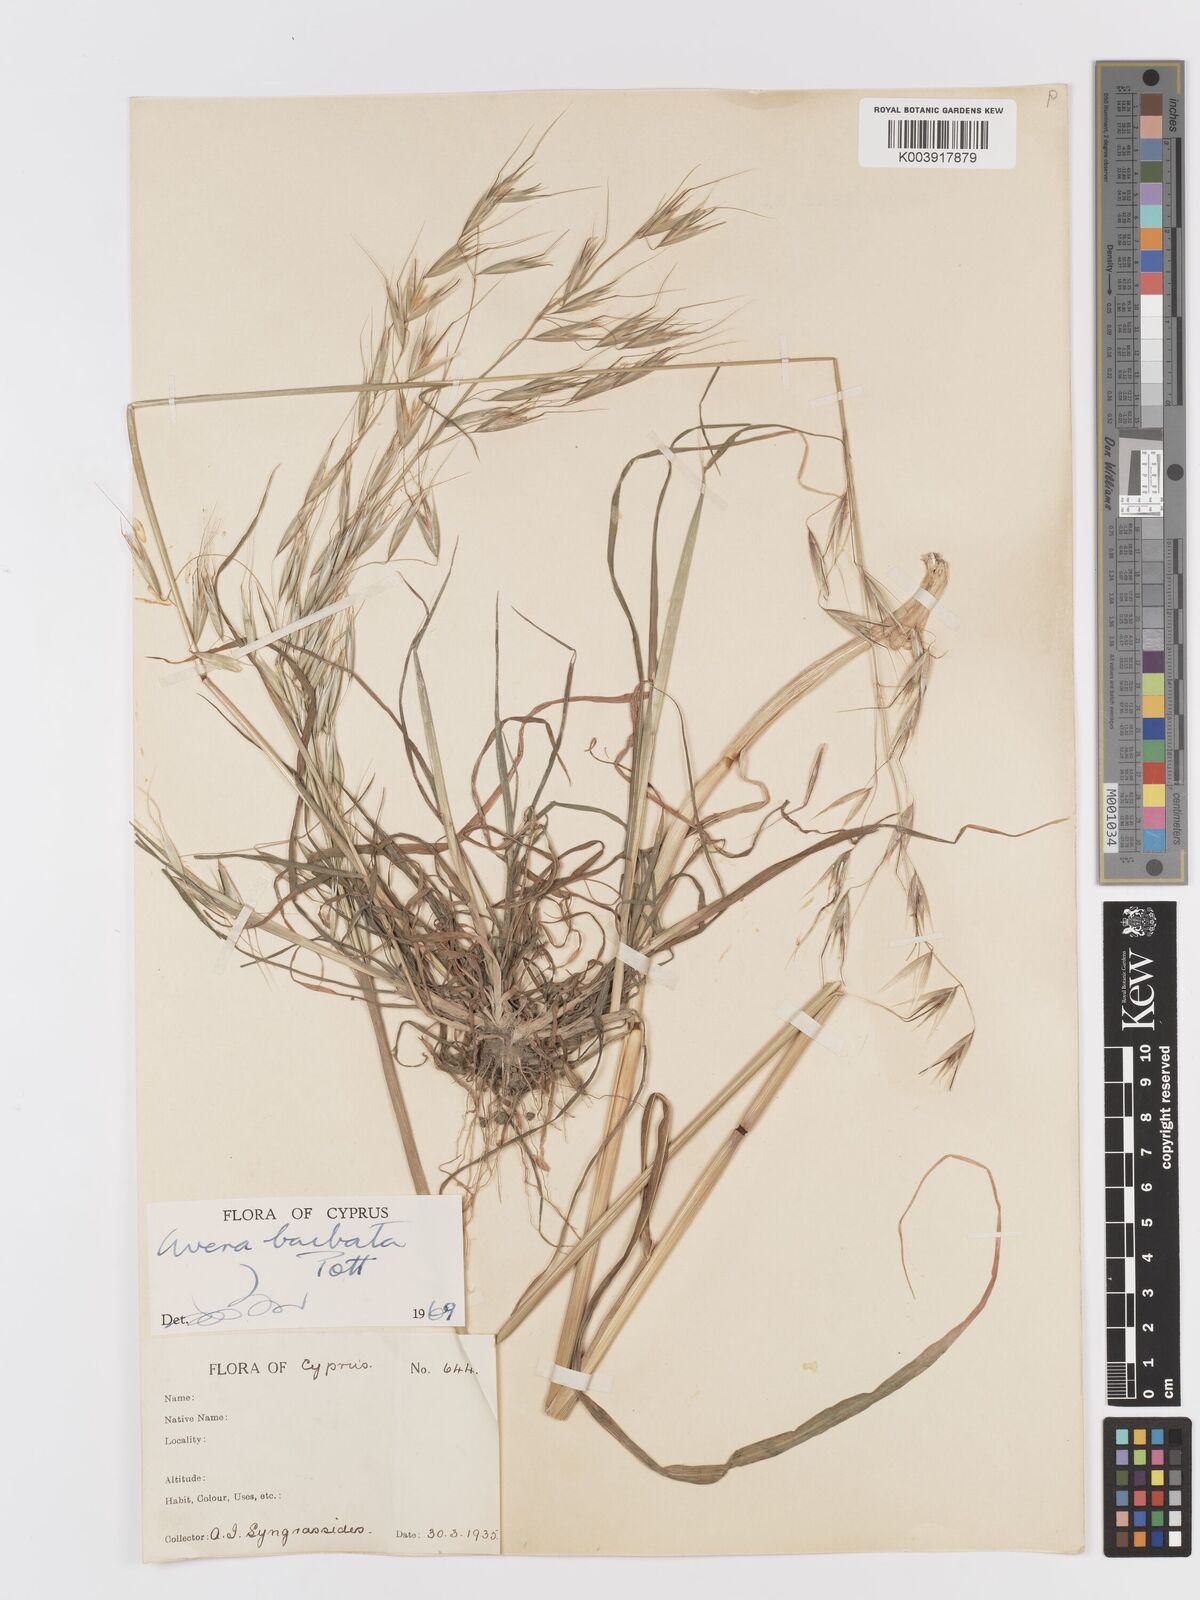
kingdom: Plantae
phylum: Tracheophyta
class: Liliopsida
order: Poales
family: Poaceae
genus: Avena
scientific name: Avena
